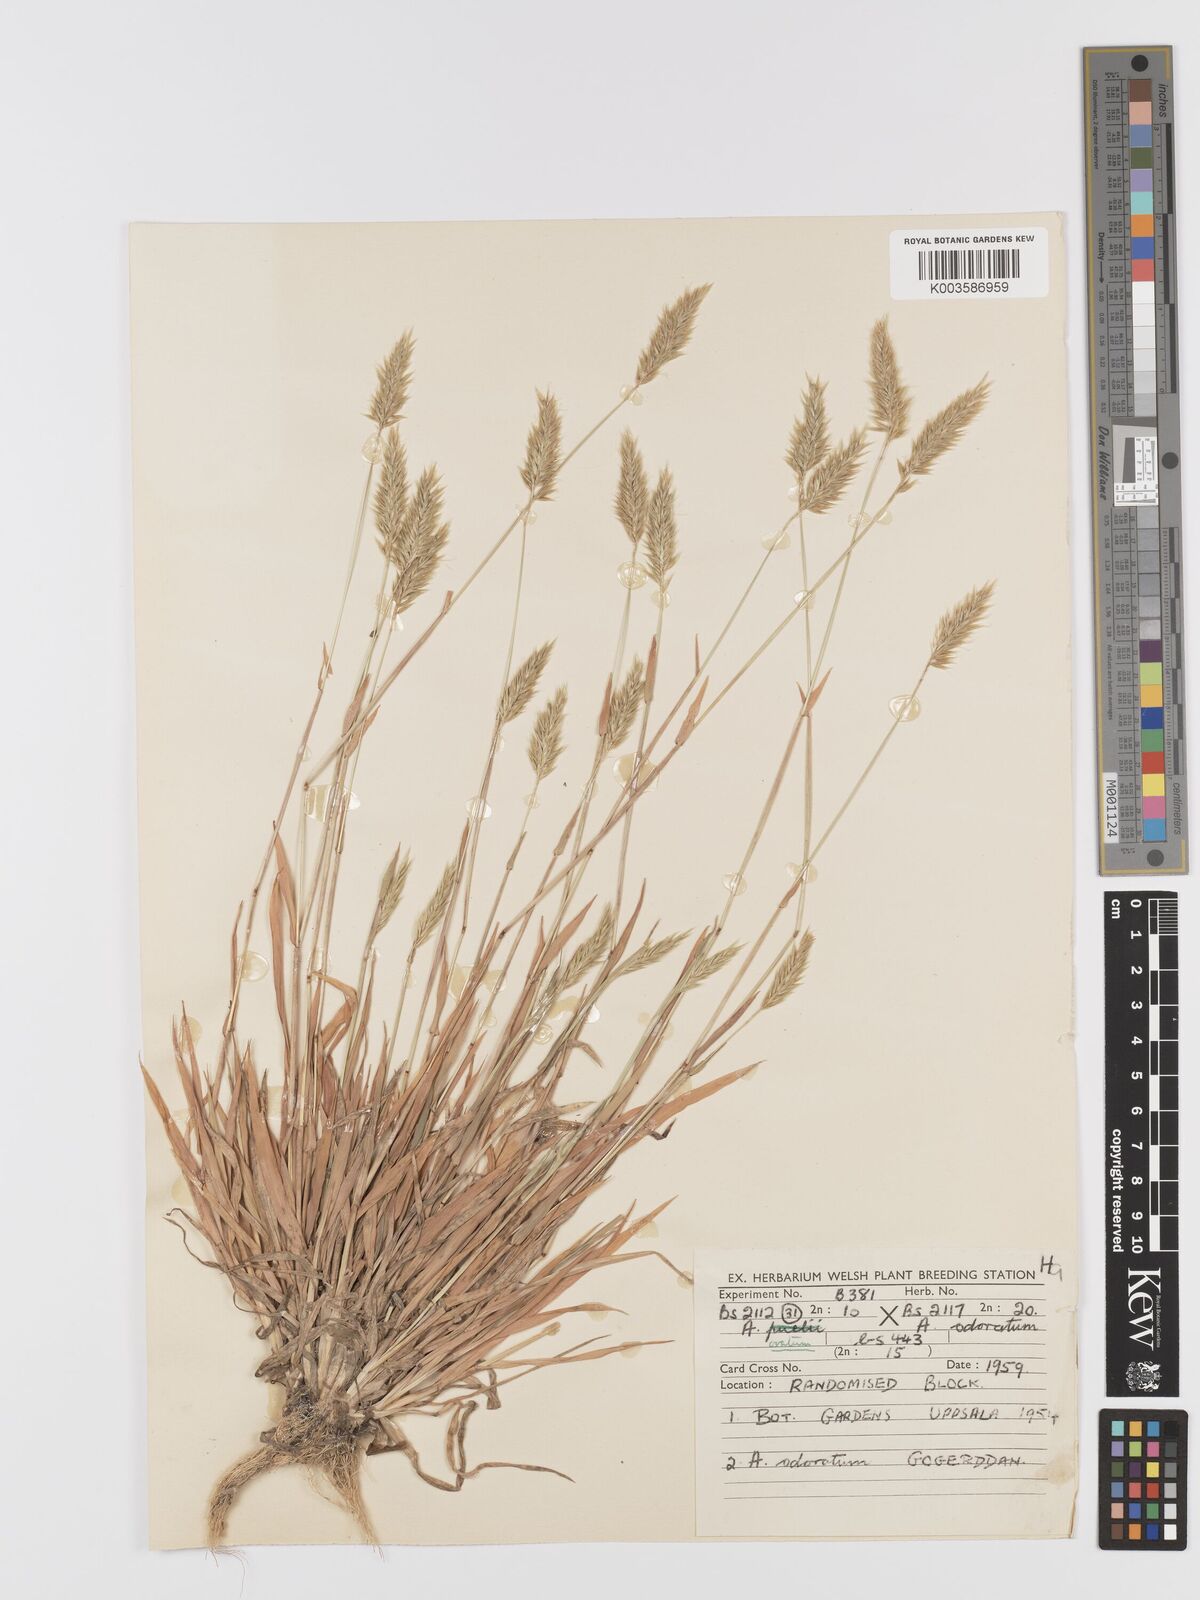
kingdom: Plantae
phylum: Tracheophyta
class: Liliopsida
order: Poales
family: Poaceae
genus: Anthoxanthum
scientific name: Anthoxanthum odoratum
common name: Sweet vernalgrass
